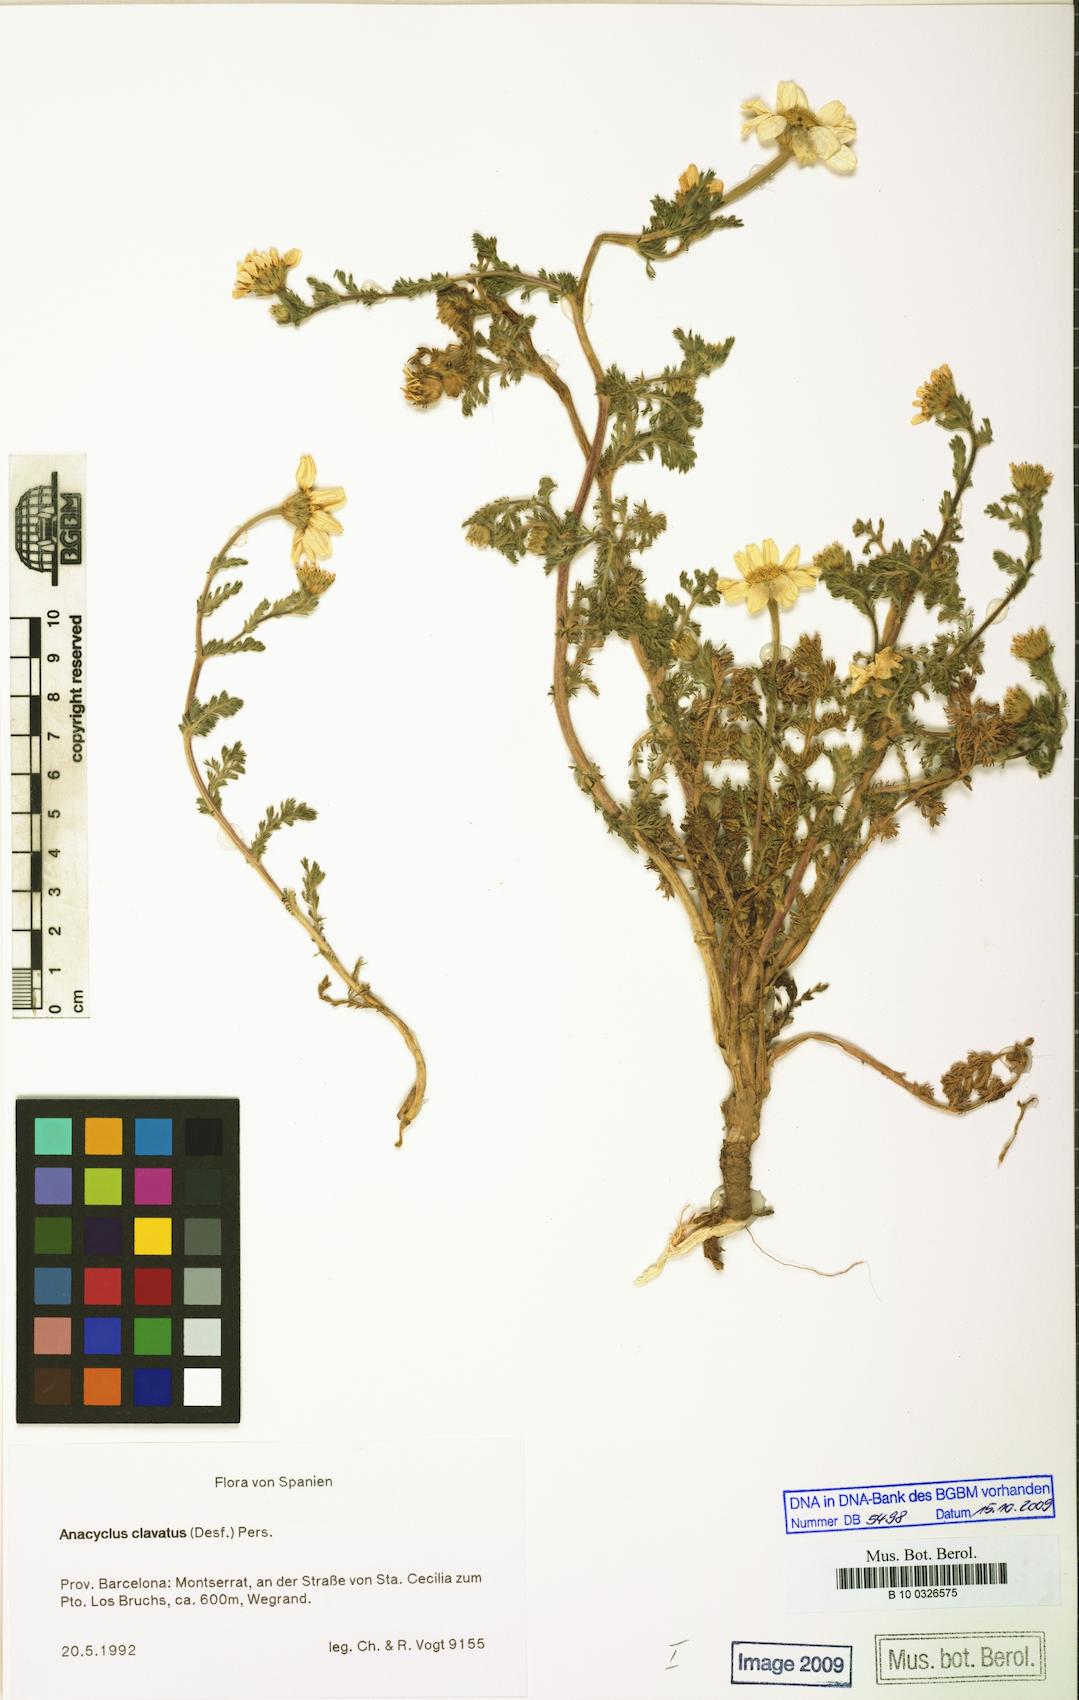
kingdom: Plantae
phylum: Tracheophyta
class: Magnoliopsida
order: Asterales
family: Asteraceae
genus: Anacyclus
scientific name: Anacyclus clavatus
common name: Whitebuttons
